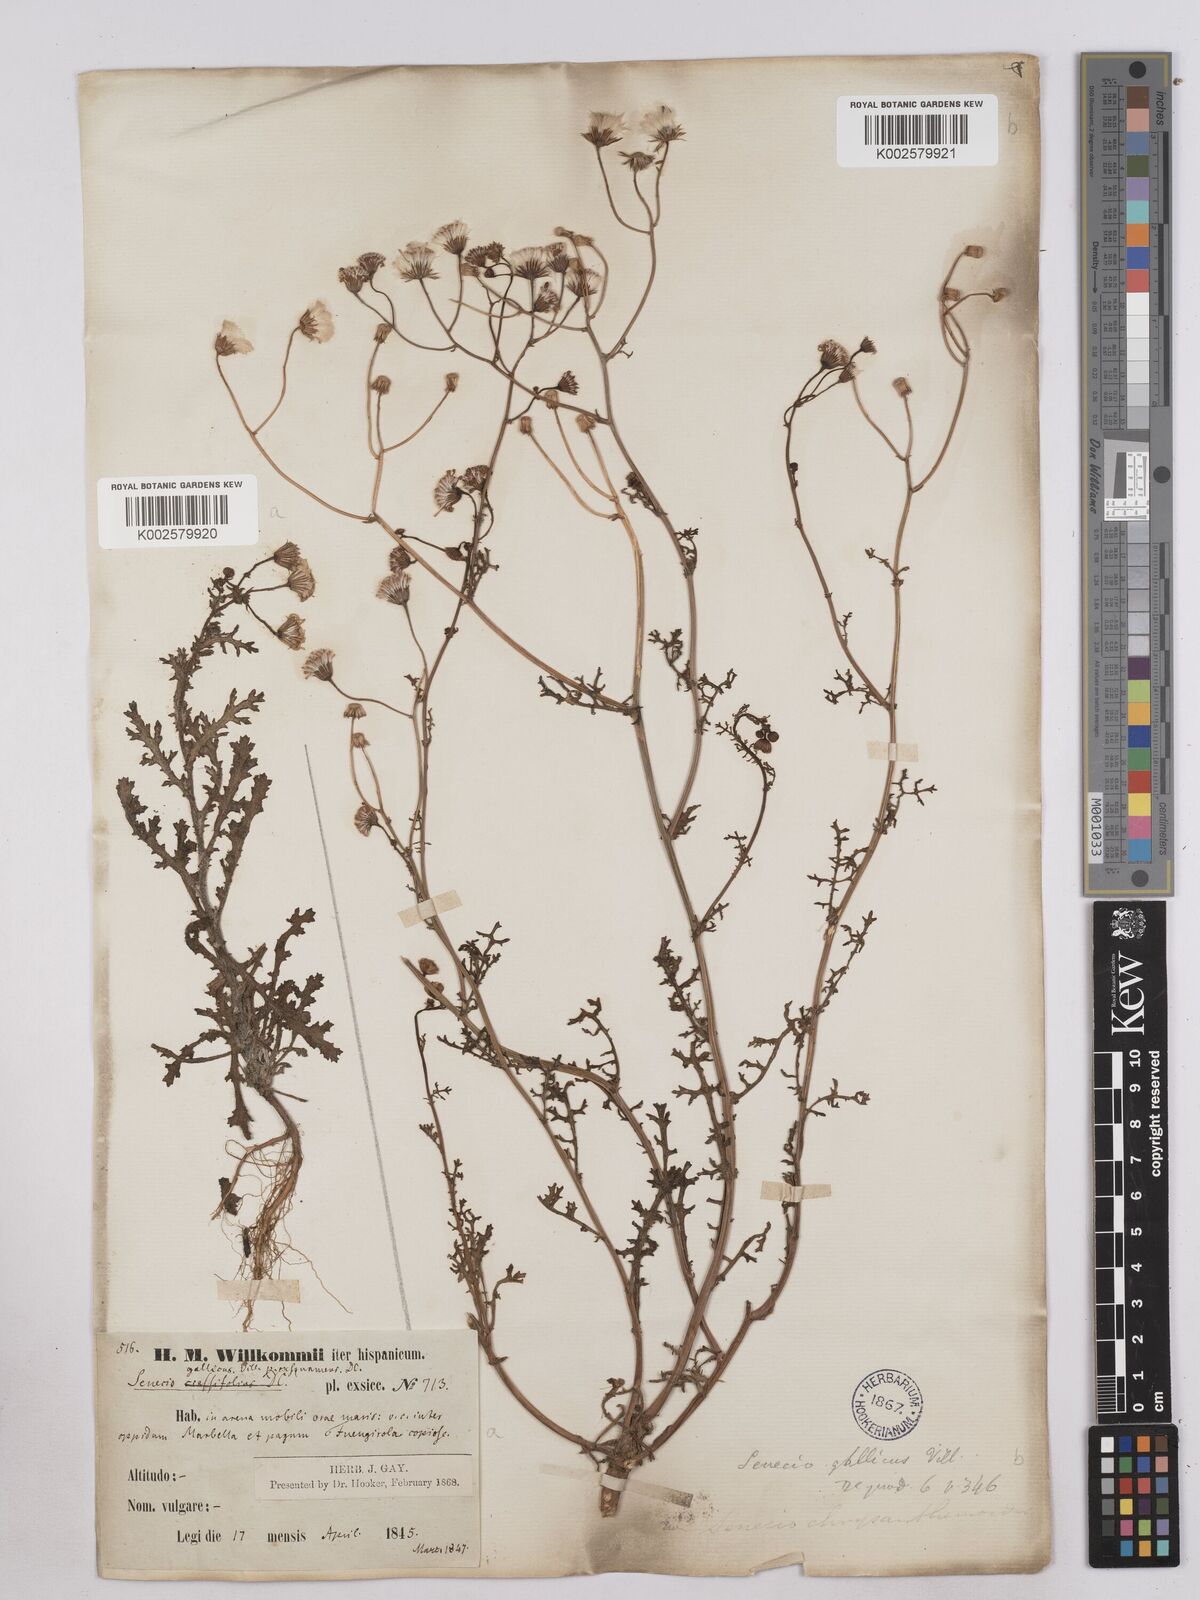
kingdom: Plantae
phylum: Tracheophyta
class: Magnoliopsida
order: Asterales
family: Asteraceae
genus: Senecio
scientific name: Senecio gallicus
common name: French groundsel
